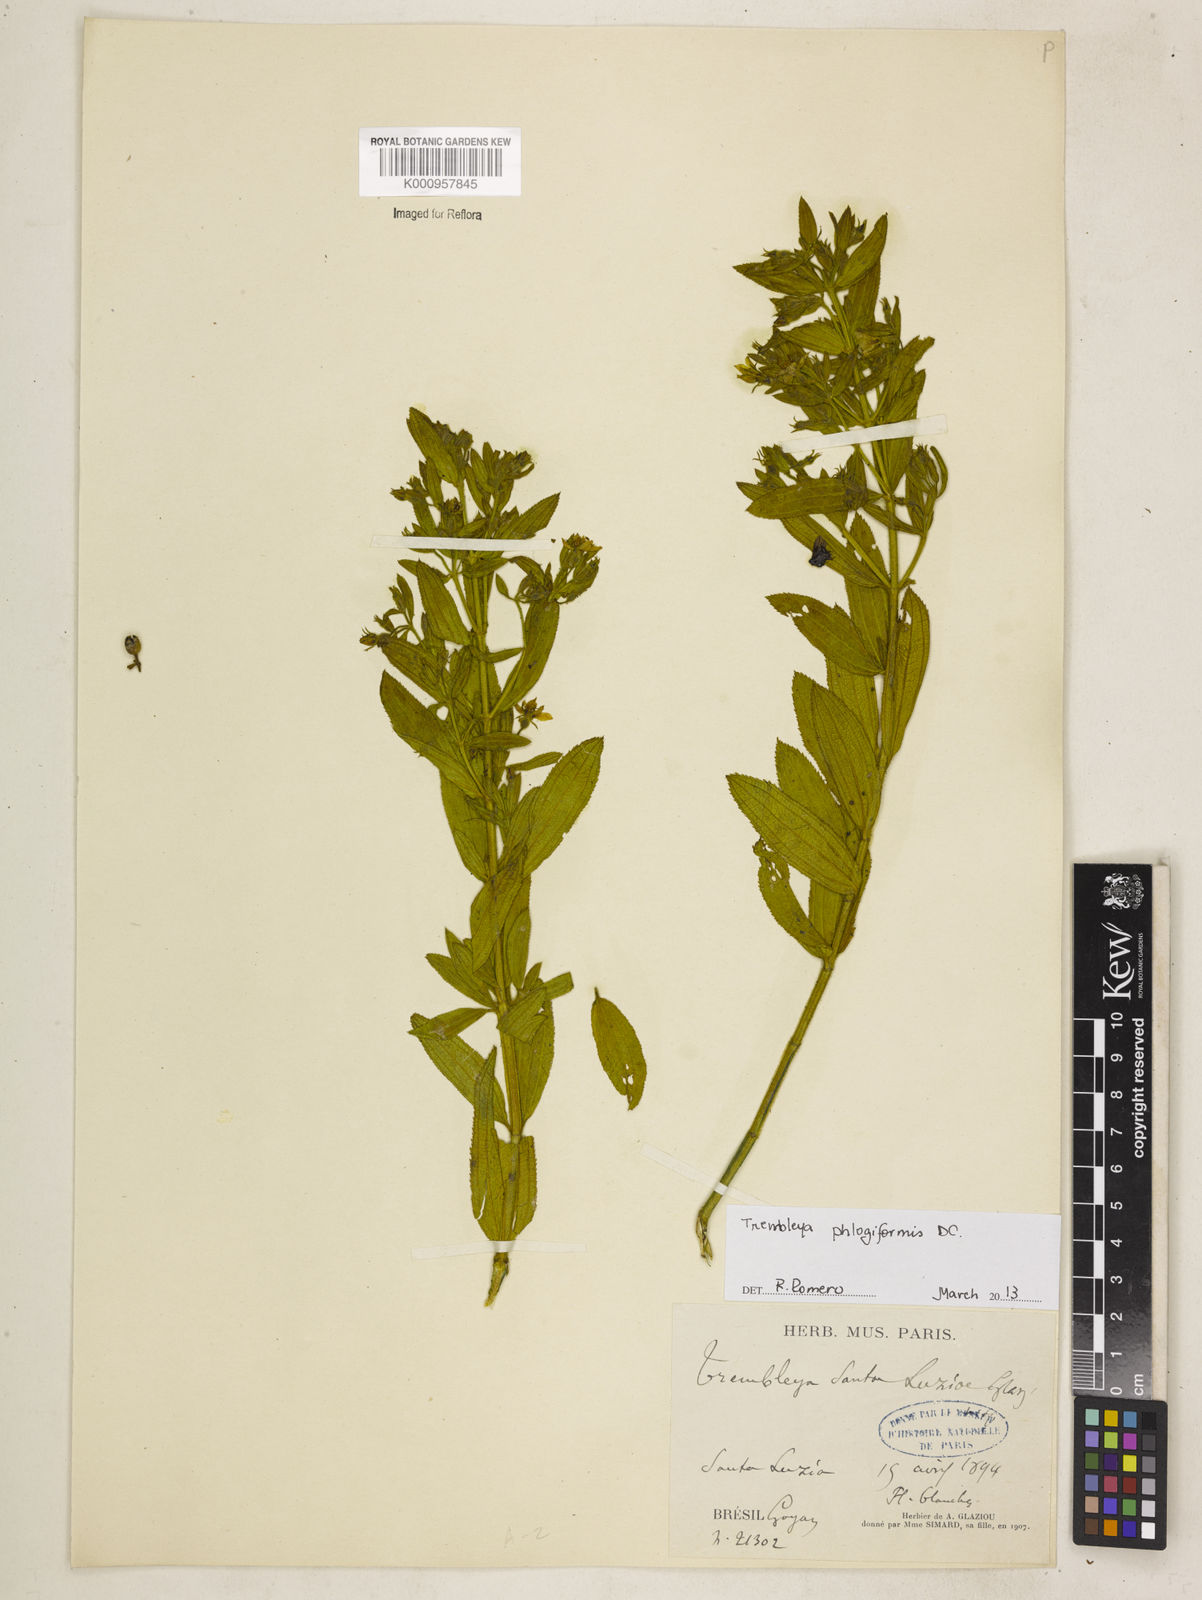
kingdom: Plantae
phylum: Tracheophyta
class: Magnoliopsida
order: Myrtales
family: Melastomataceae
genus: Microlicia
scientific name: Microlicia phlogiformis
